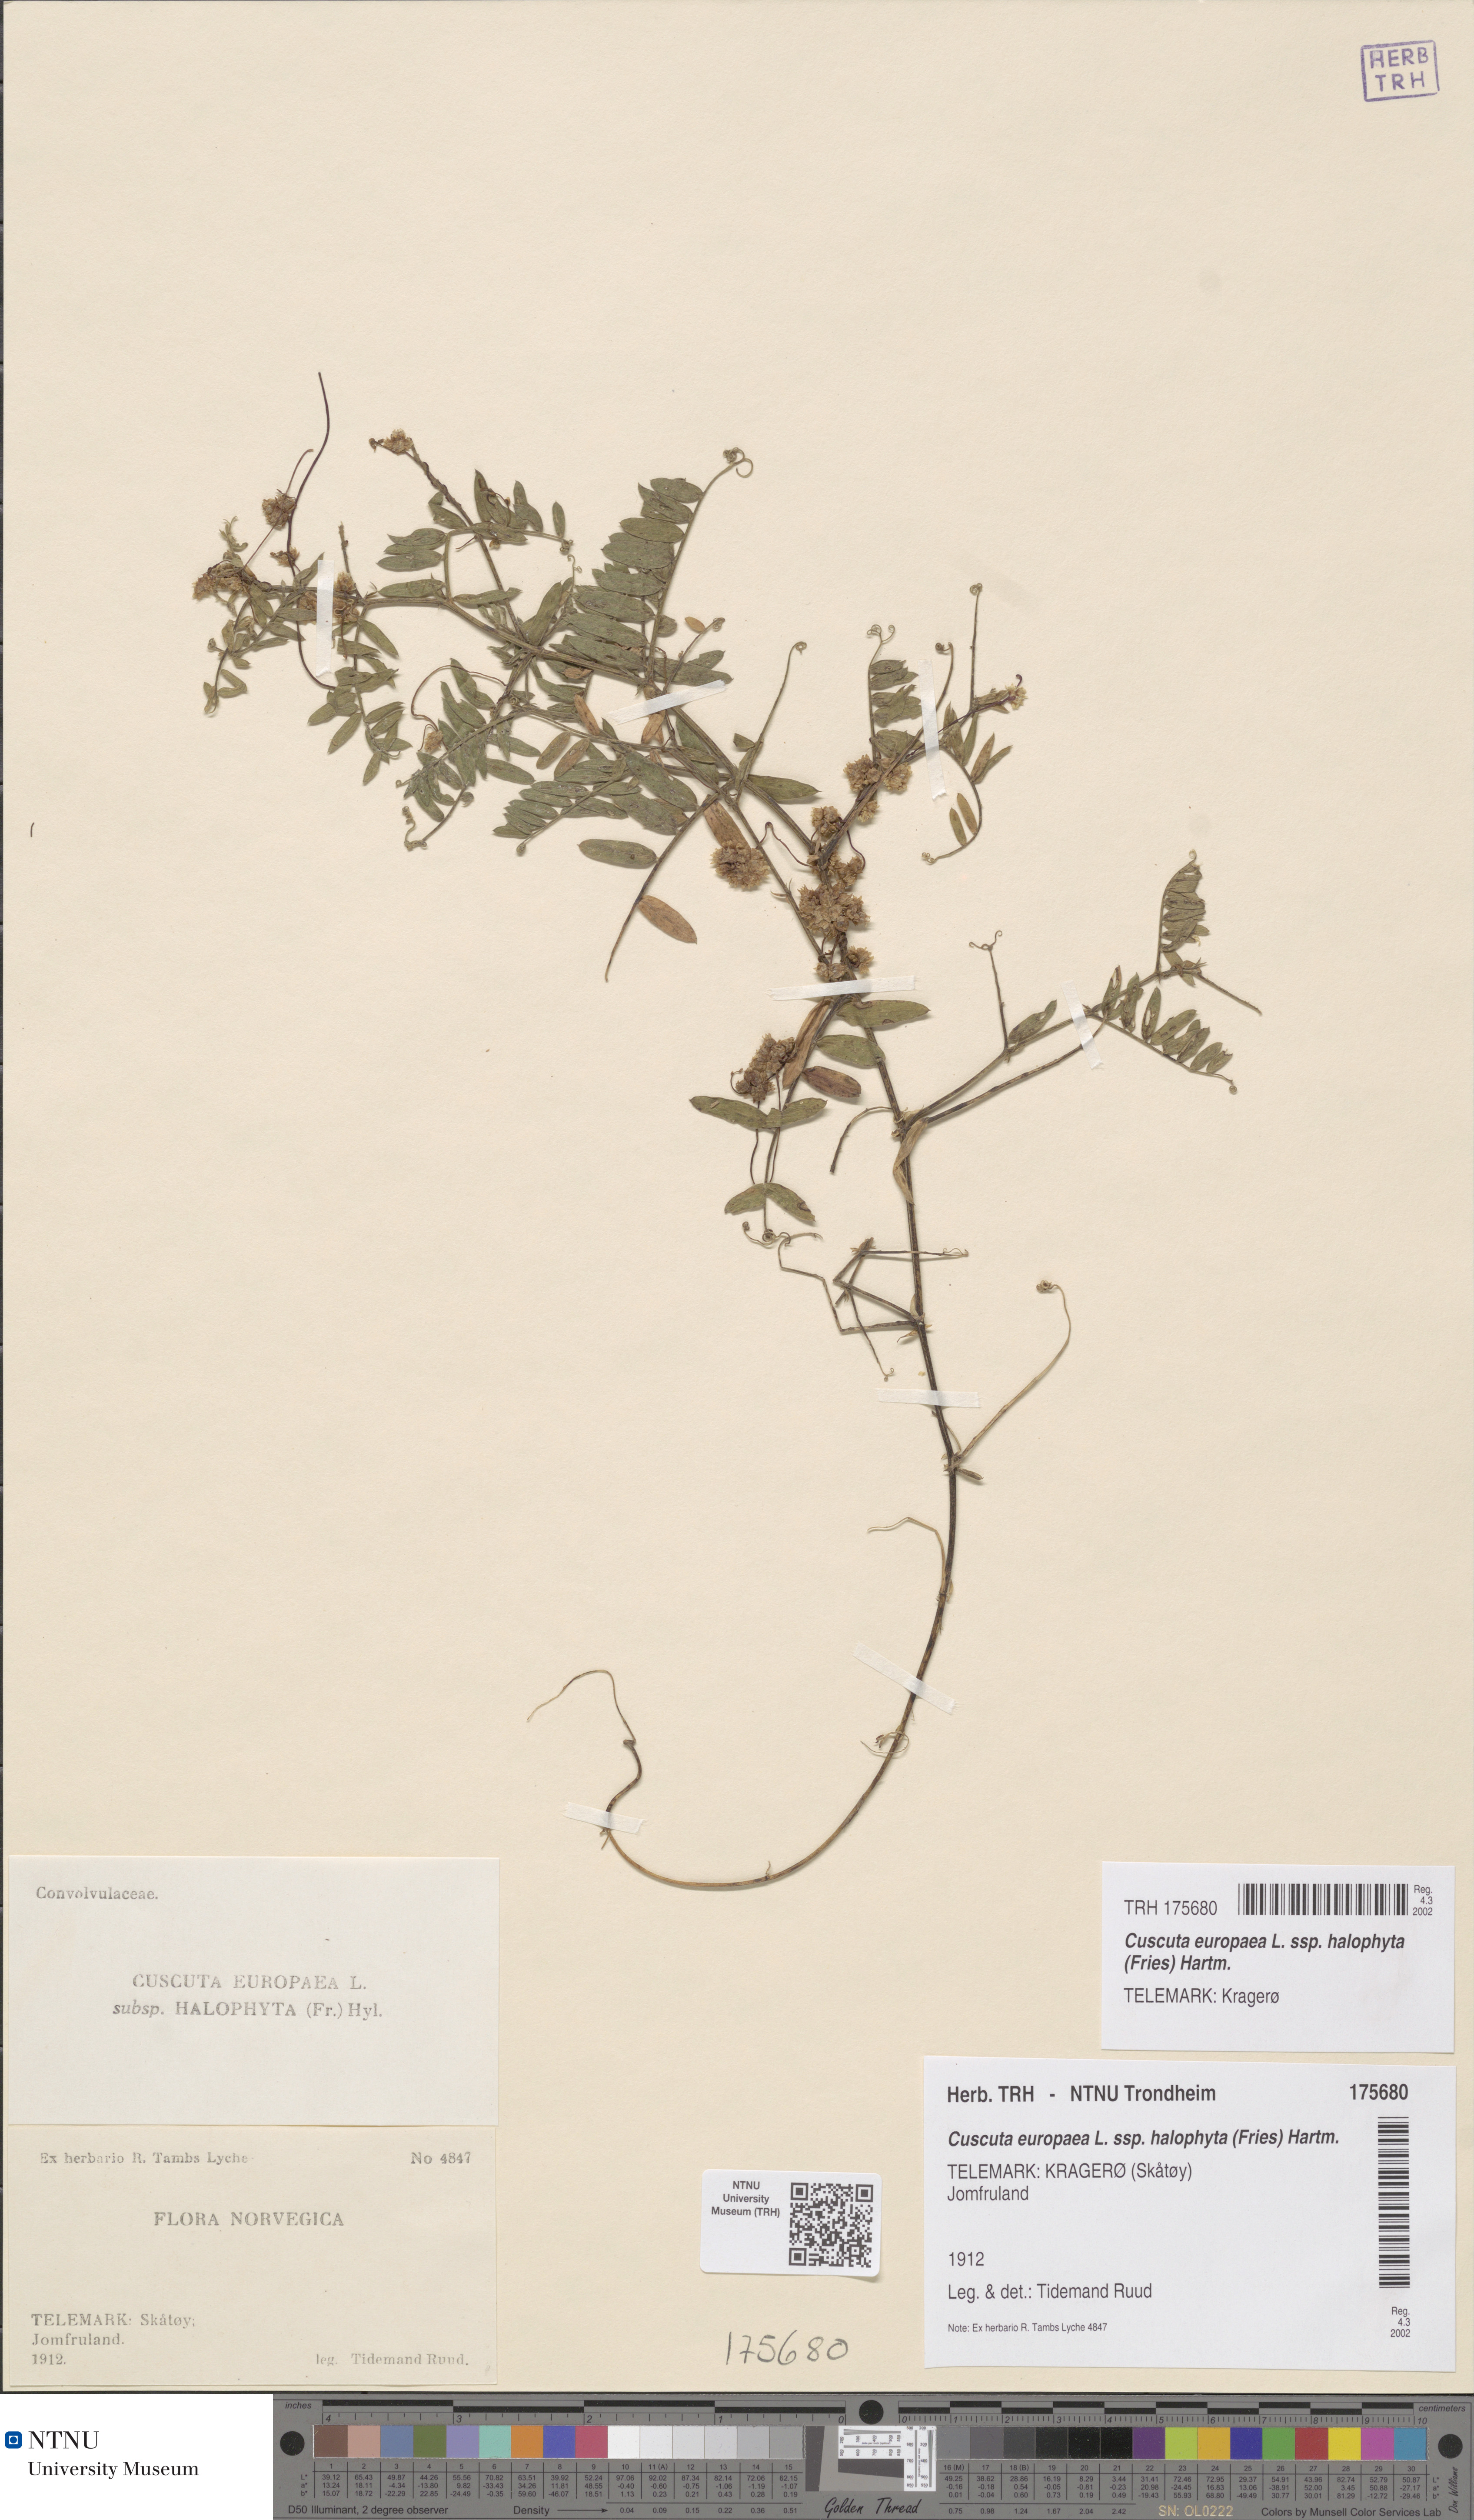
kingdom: Plantae
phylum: Tracheophyta
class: Magnoliopsida
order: Solanales
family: Convolvulaceae
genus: Cuscuta
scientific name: Cuscuta europaea
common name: Greater dodder
